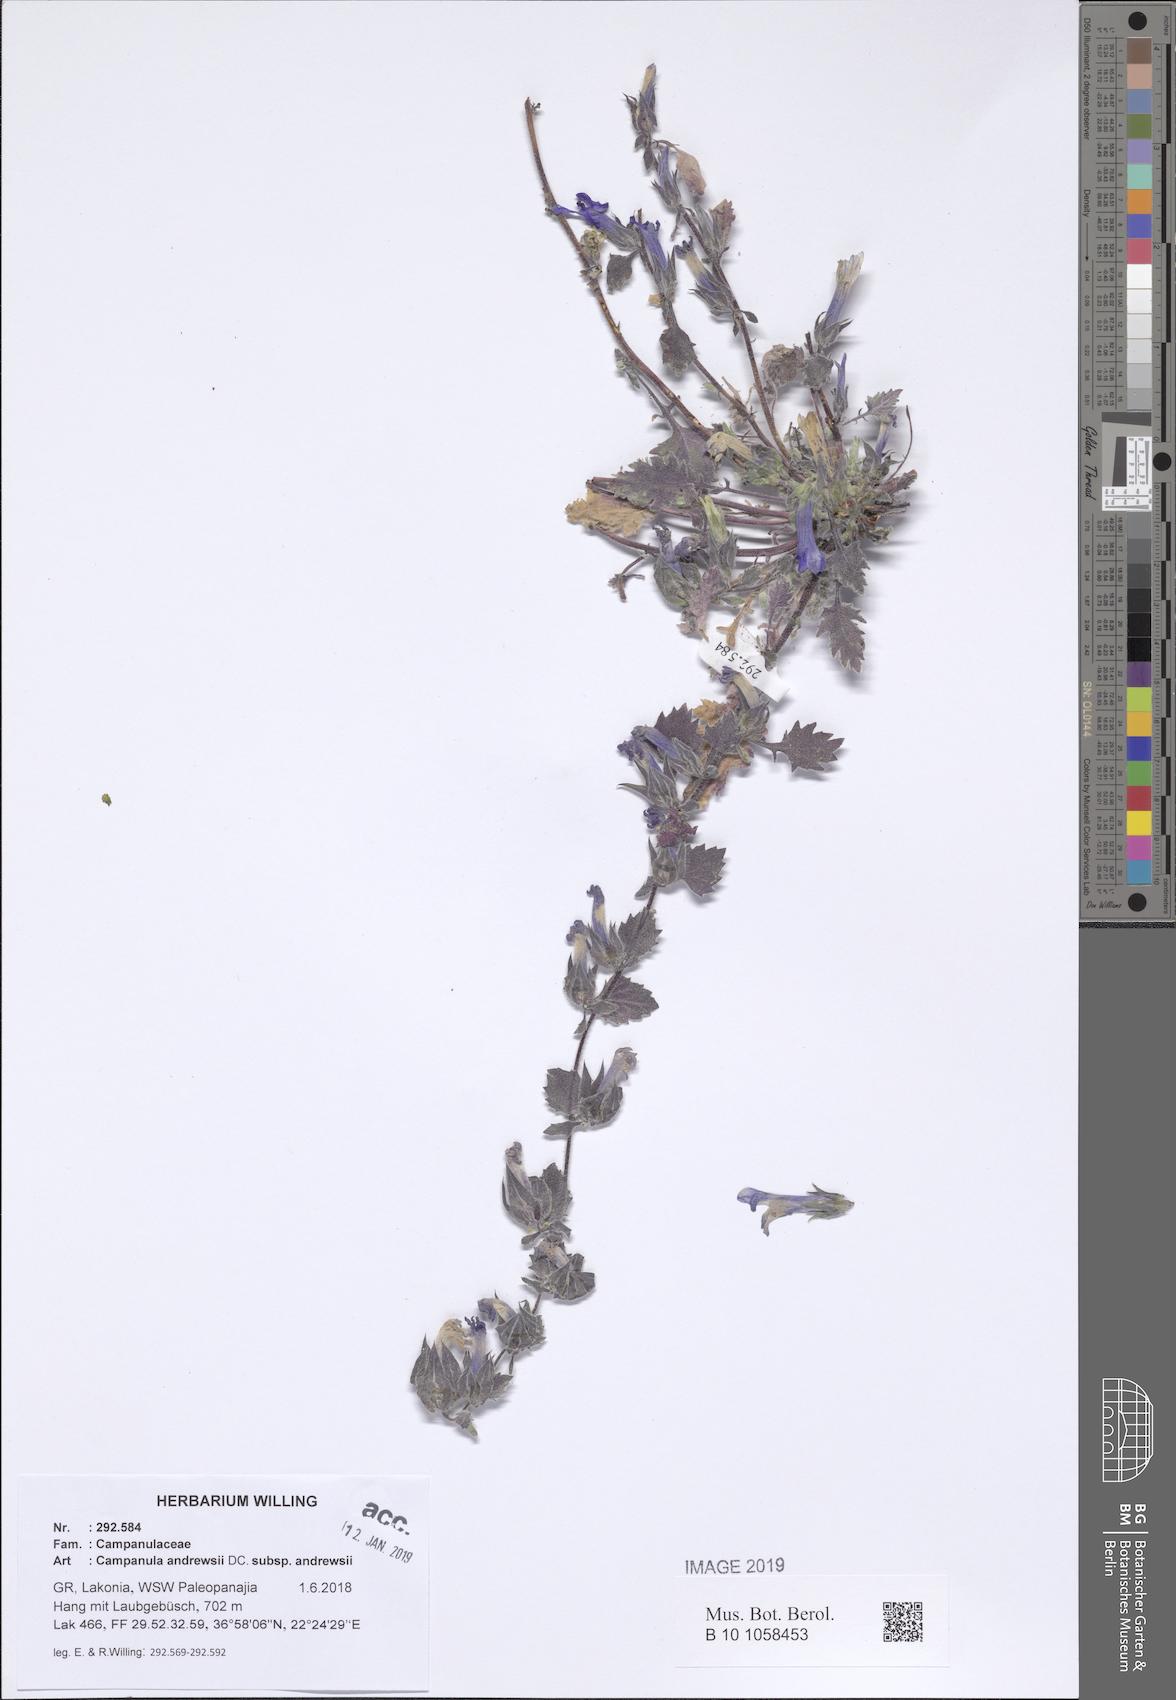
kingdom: Plantae
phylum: Tracheophyta
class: Magnoliopsida
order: Asterales
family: Campanulaceae
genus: Campanula
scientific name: Campanula andrewsii
